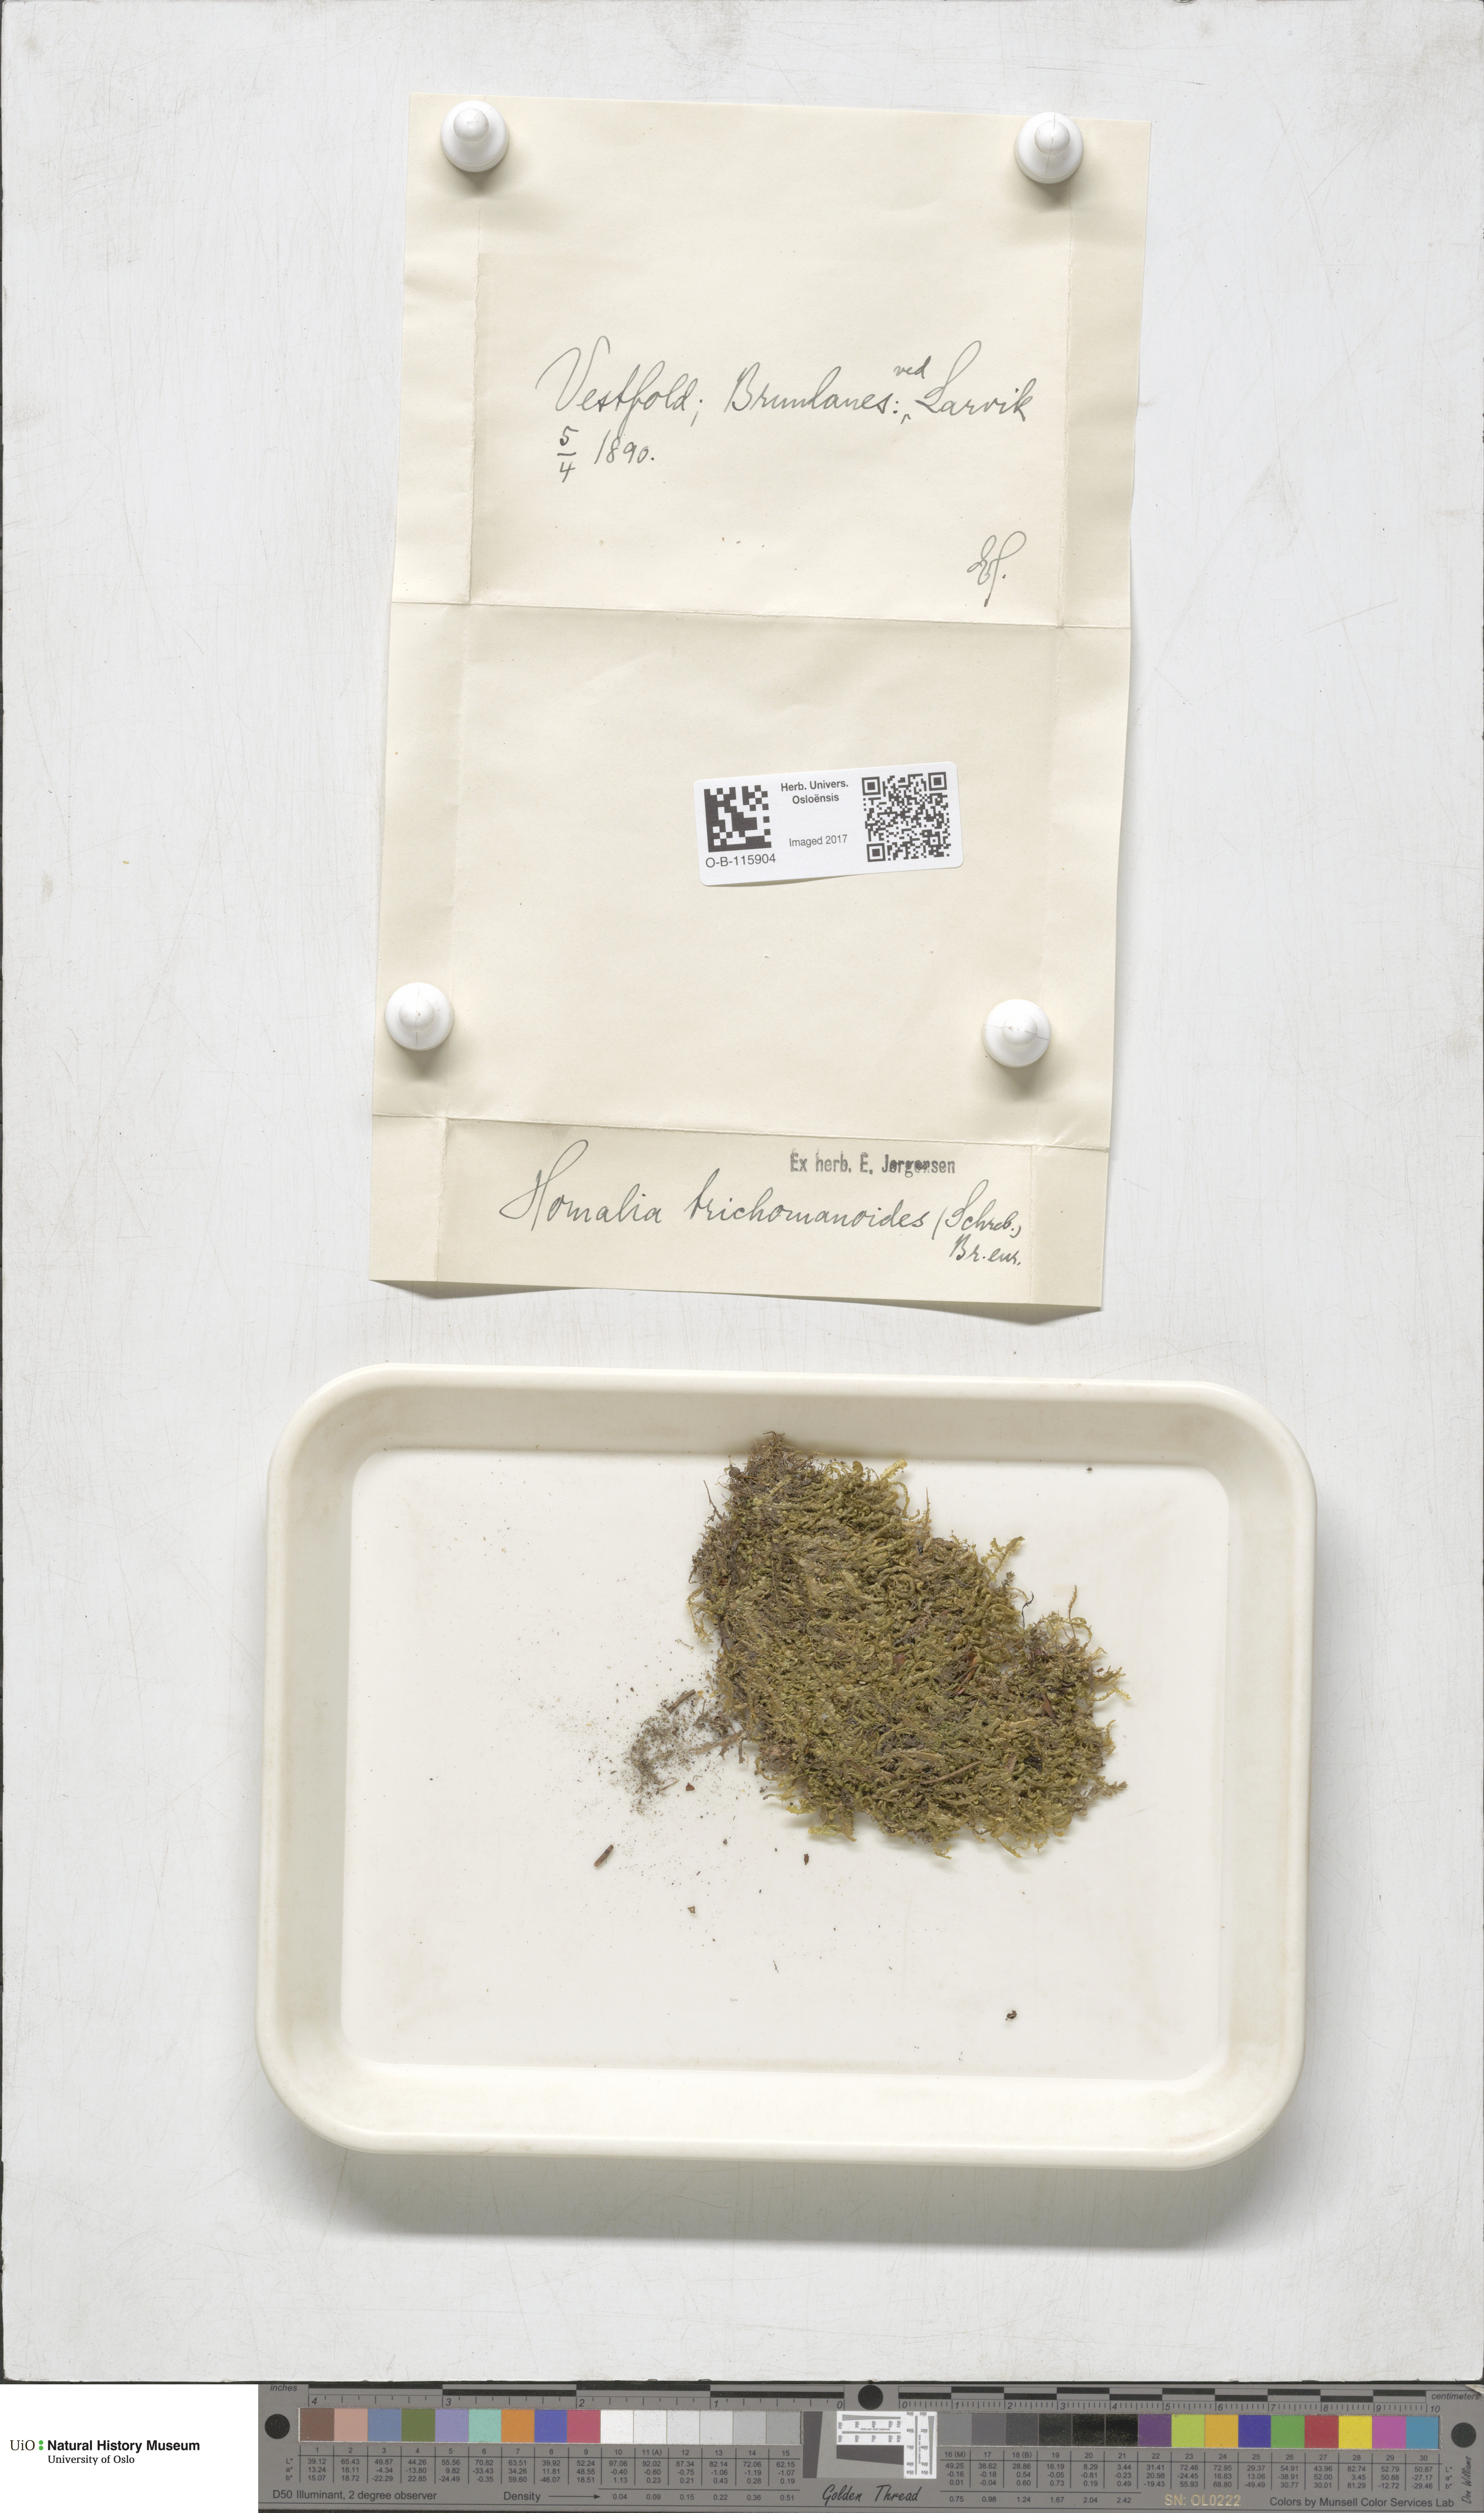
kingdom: Plantae
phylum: Bryophyta
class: Bryopsida
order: Hypnales
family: Neckeraceae
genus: Homalia
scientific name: Homalia trichomanoides
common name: Lime homalia moss
